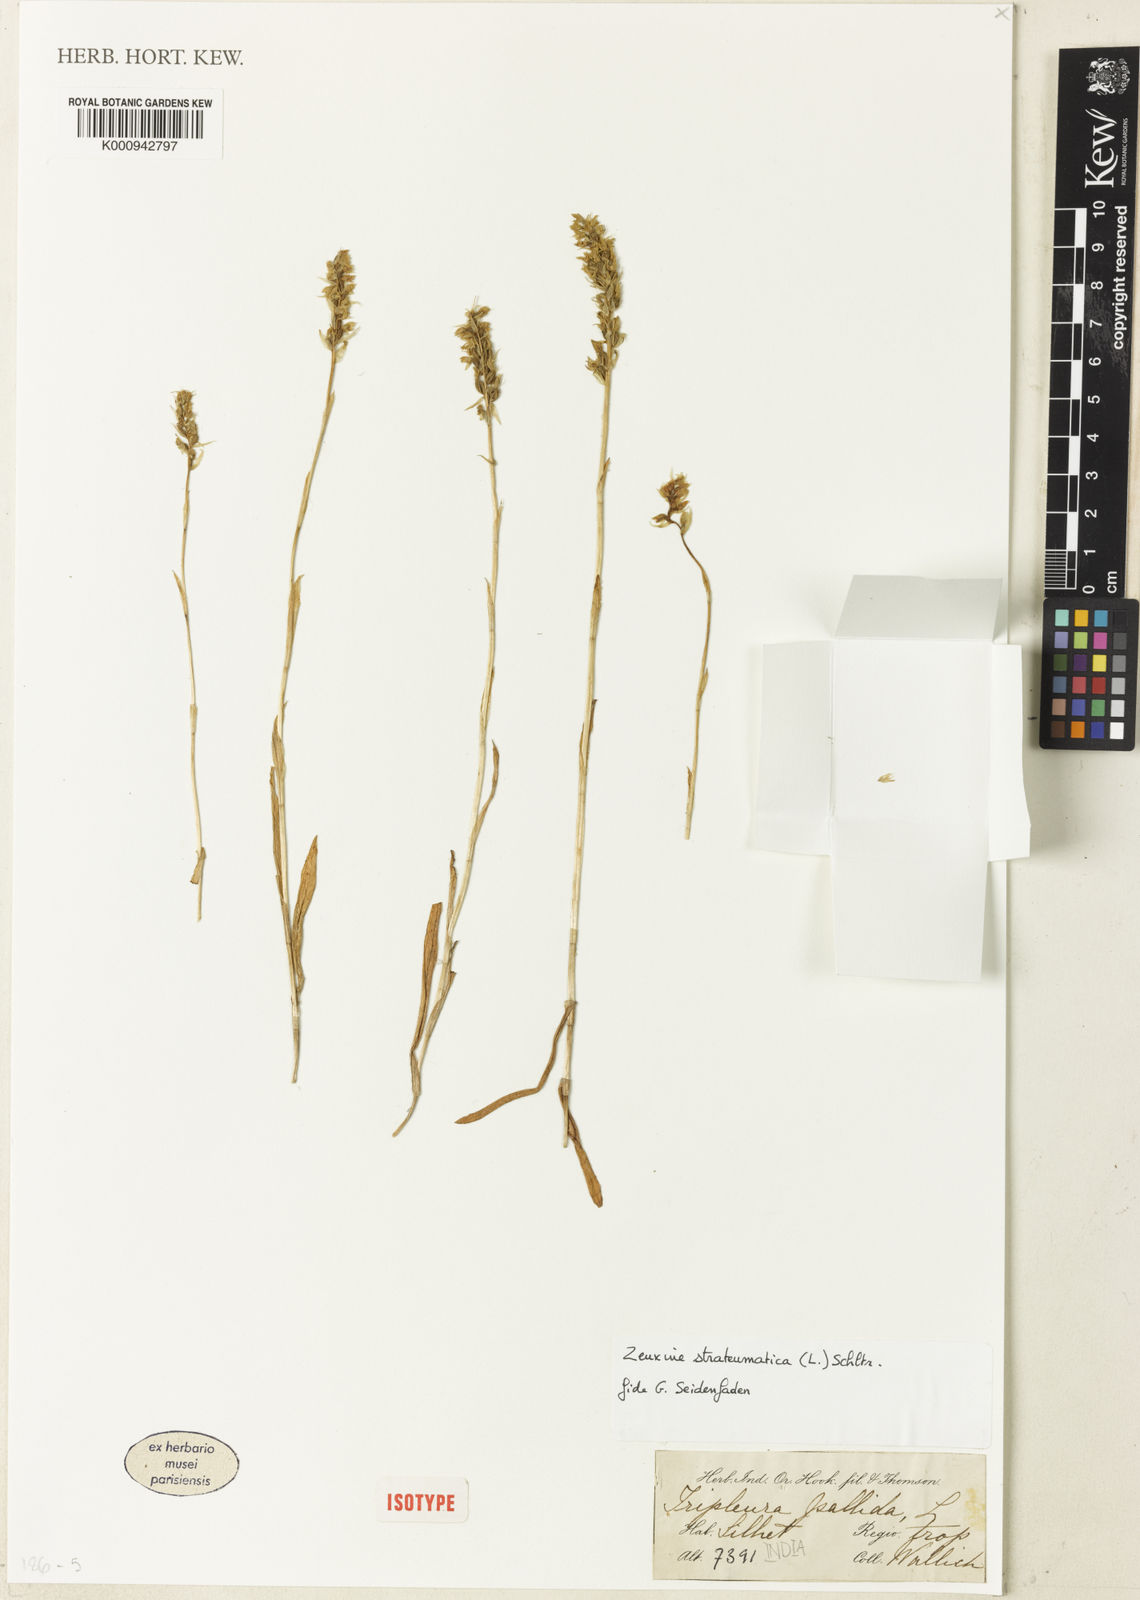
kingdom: Plantae
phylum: Tracheophyta
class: Liliopsida
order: Asparagales
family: Orchidaceae
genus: Zeuxine
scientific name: Zeuxine strateumatica
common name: Soldier's orchid
